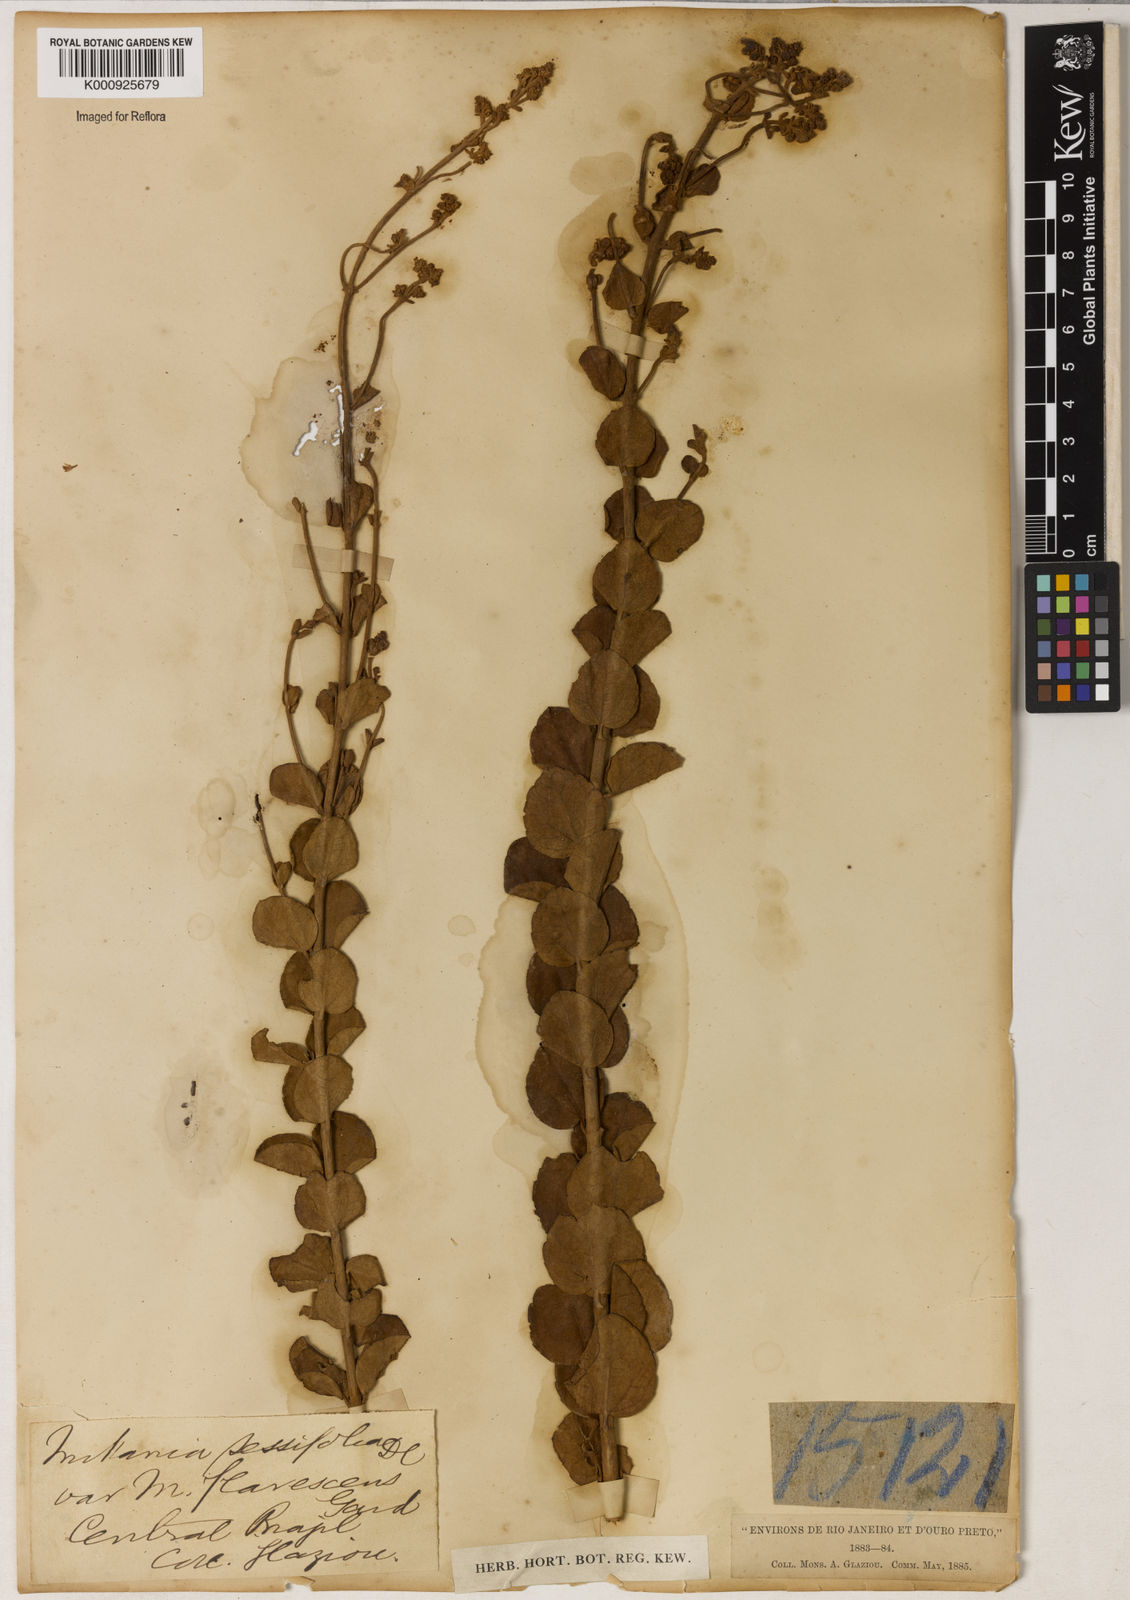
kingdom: Plantae
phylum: Tracheophyta
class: Magnoliopsida
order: Asterales
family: Asteraceae
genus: Mikania
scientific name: Mikania sessilifolia
